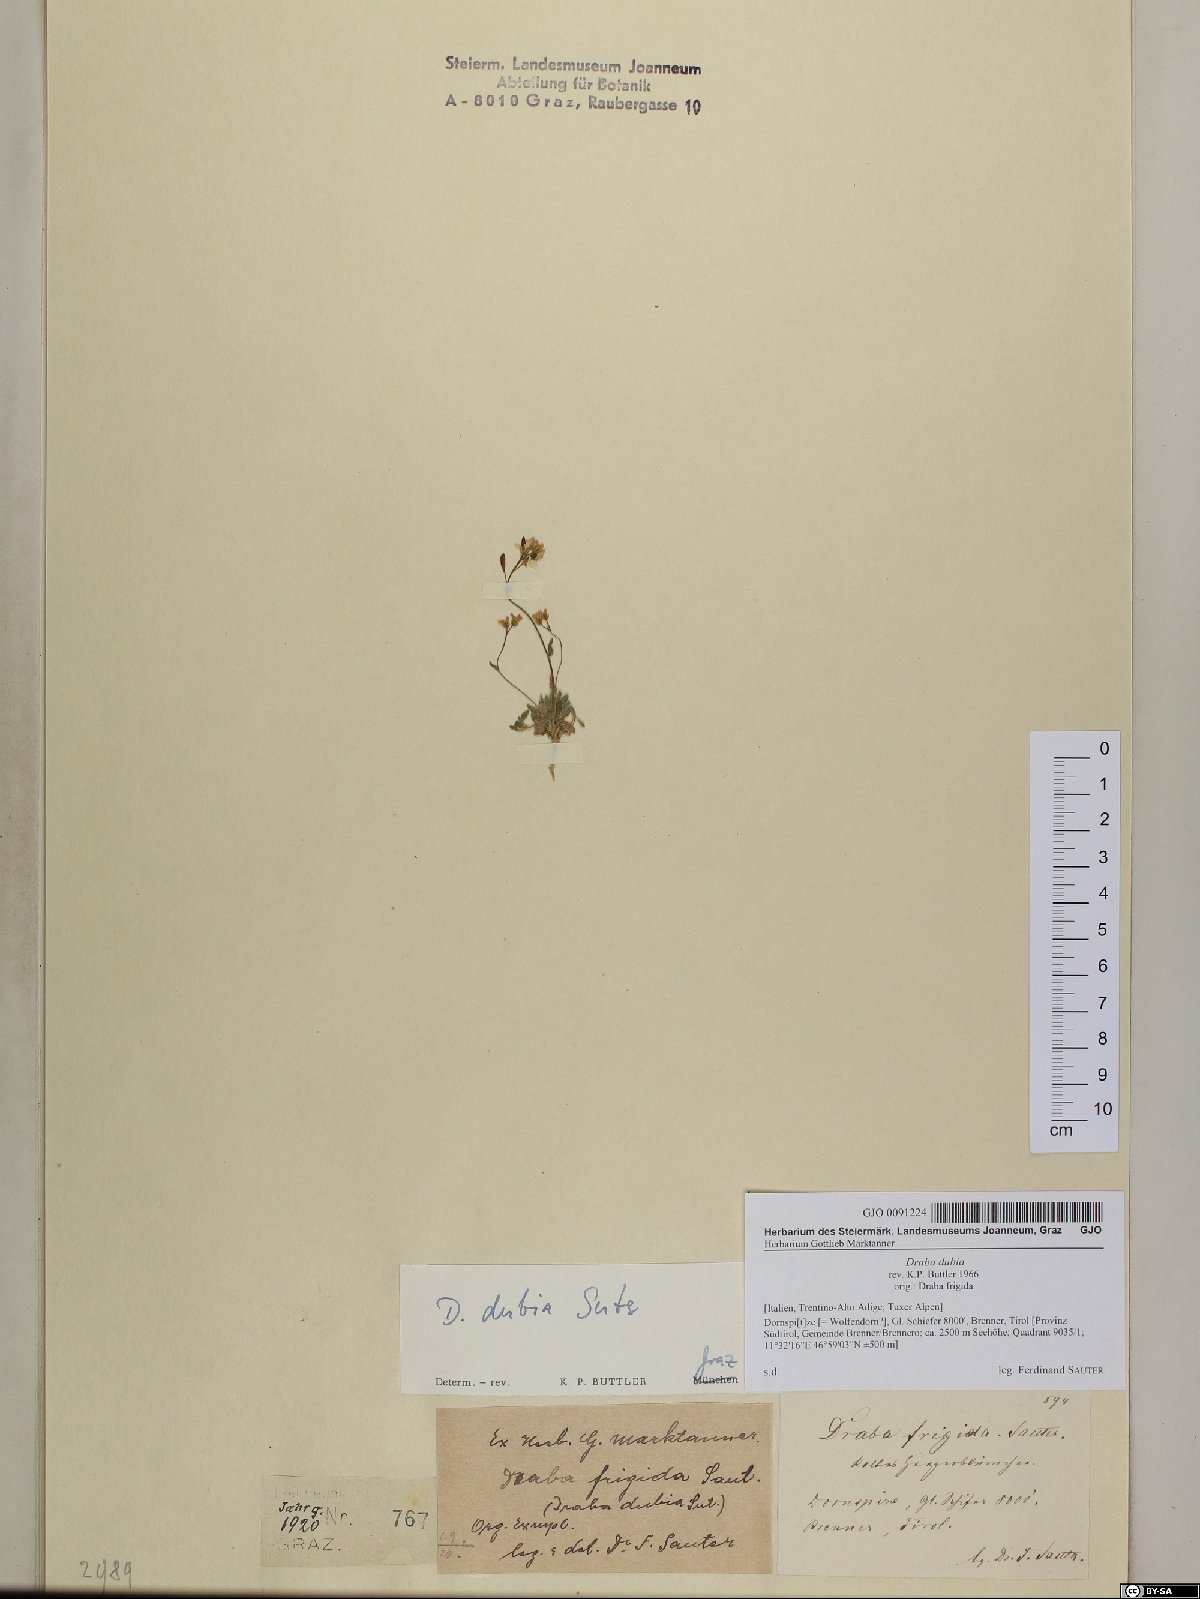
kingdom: Plantae
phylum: Tracheophyta
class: Magnoliopsida
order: Brassicales
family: Brassicaceae
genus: Draba
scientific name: Draba dubia
